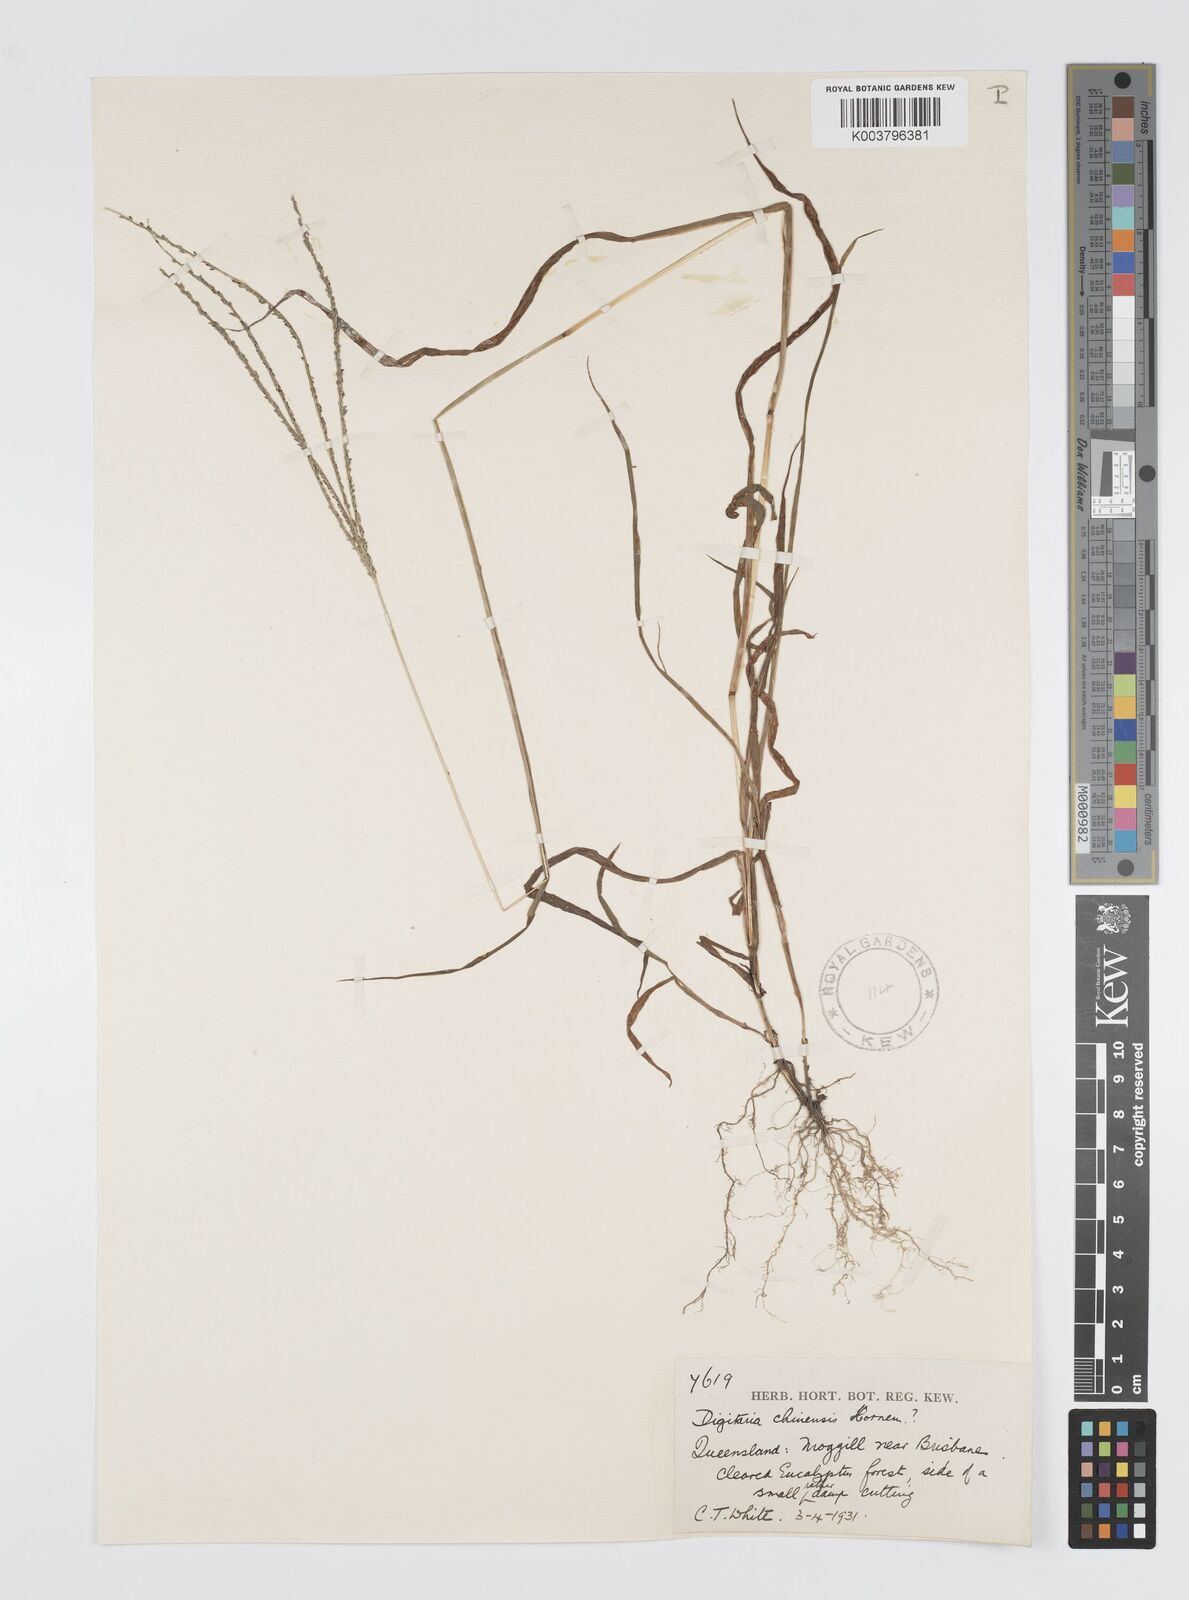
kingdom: Plantae
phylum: Tracheophyta
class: Liliopsida
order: Poales
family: Poaceae
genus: Digitaria
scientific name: Digitaria violascens
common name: Violet crabgrass
